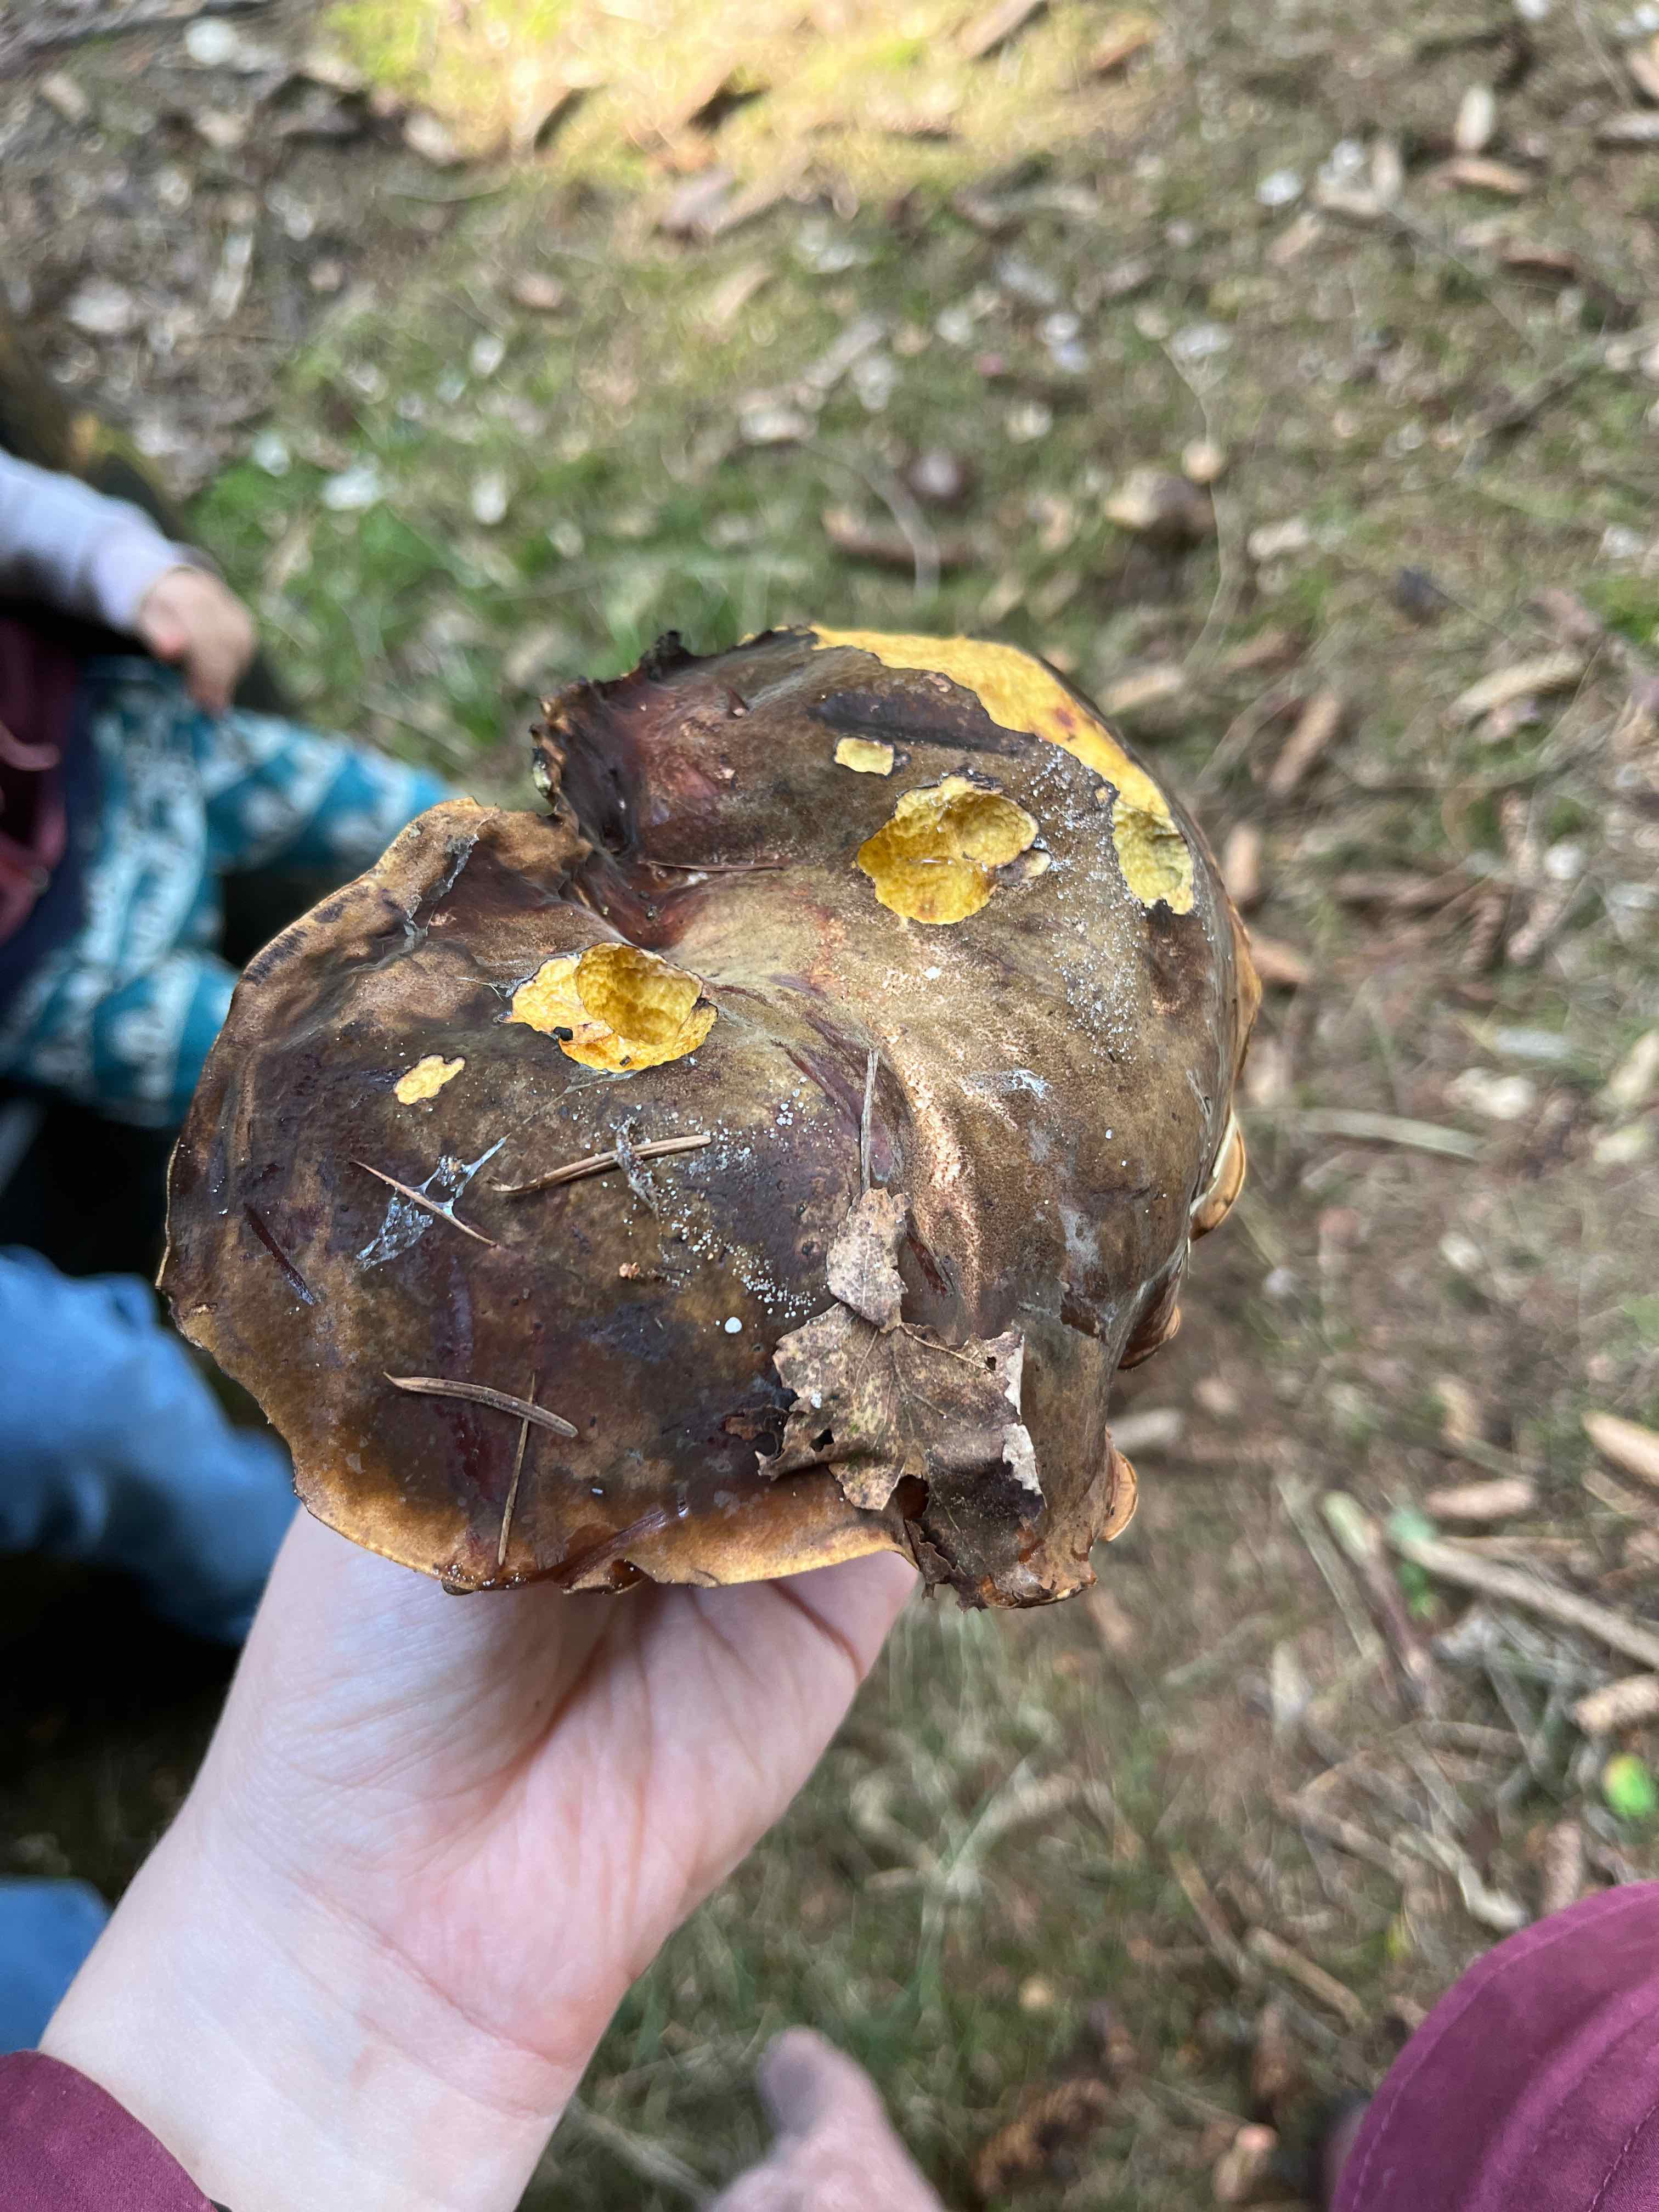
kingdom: Fungi
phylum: Basidiomycota
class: Agaricomycetes
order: Boletales
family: Boletaceae
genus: Neoboletus
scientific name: Neoboletus erythropus
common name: punktstokket indigorørhat
